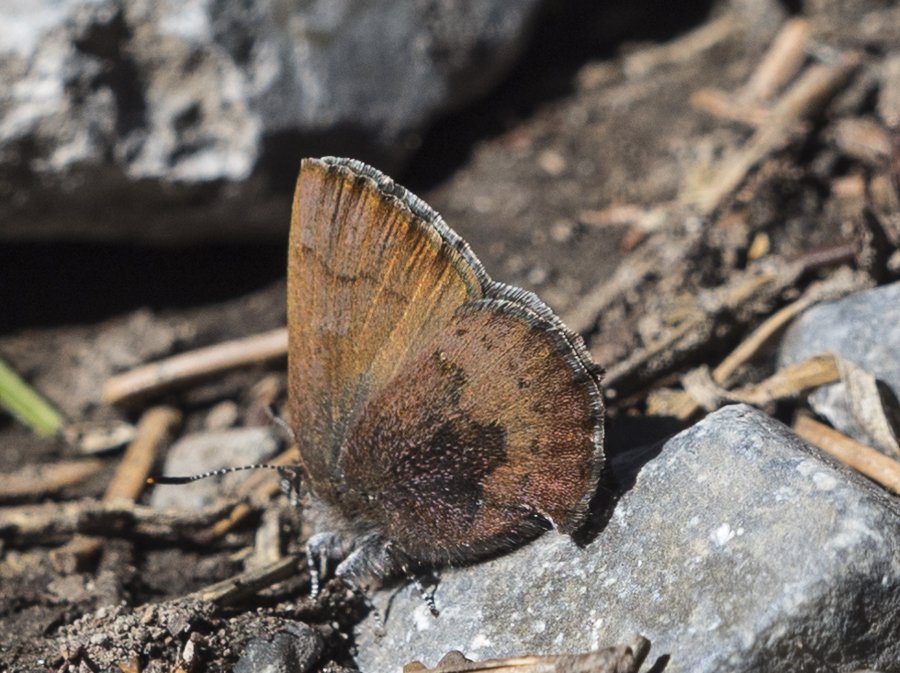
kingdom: Animalia
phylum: Arthropoda
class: Insecta
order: Lepidoptera
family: Lycaenidae
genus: Incisalia
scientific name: Incisalia irioides
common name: Brown Elfin
